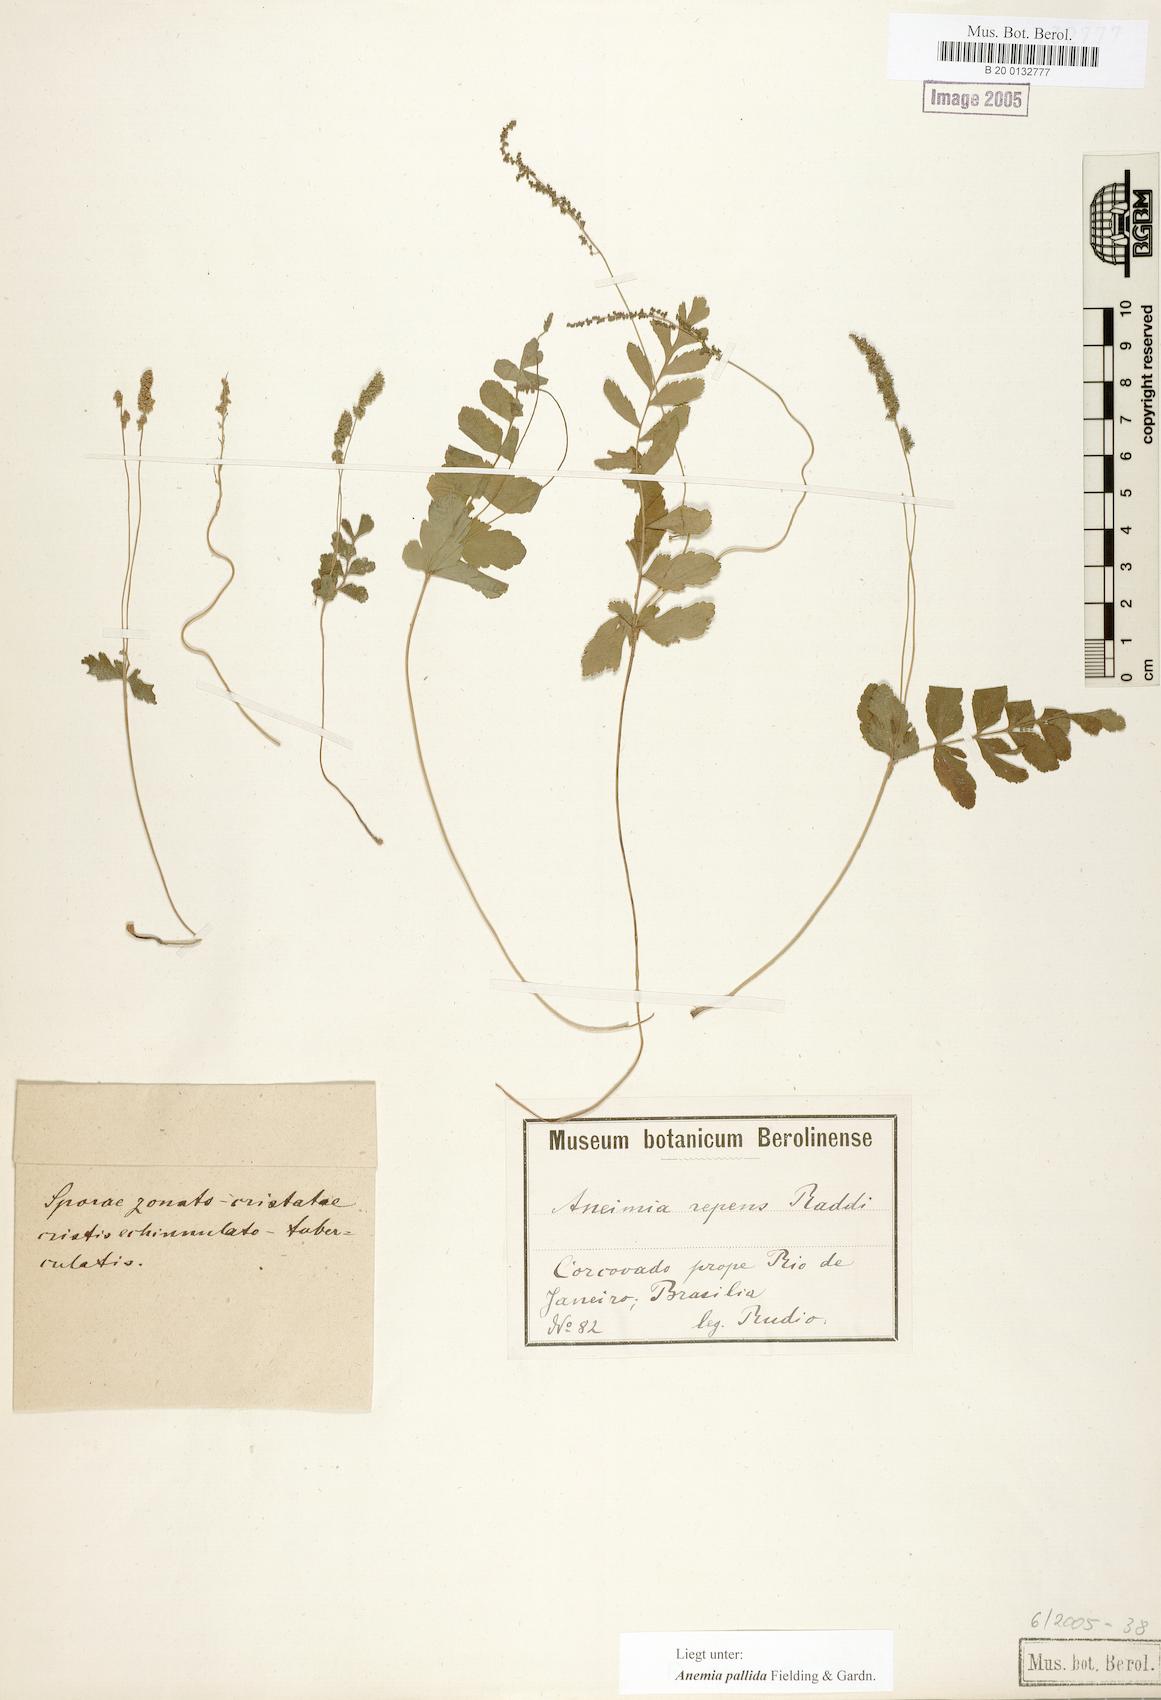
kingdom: Plantae
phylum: Tracheophyta
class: Polypodiopsida
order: Schizaeales
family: Anemiaceae
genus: Anemia
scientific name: Anemia repens
